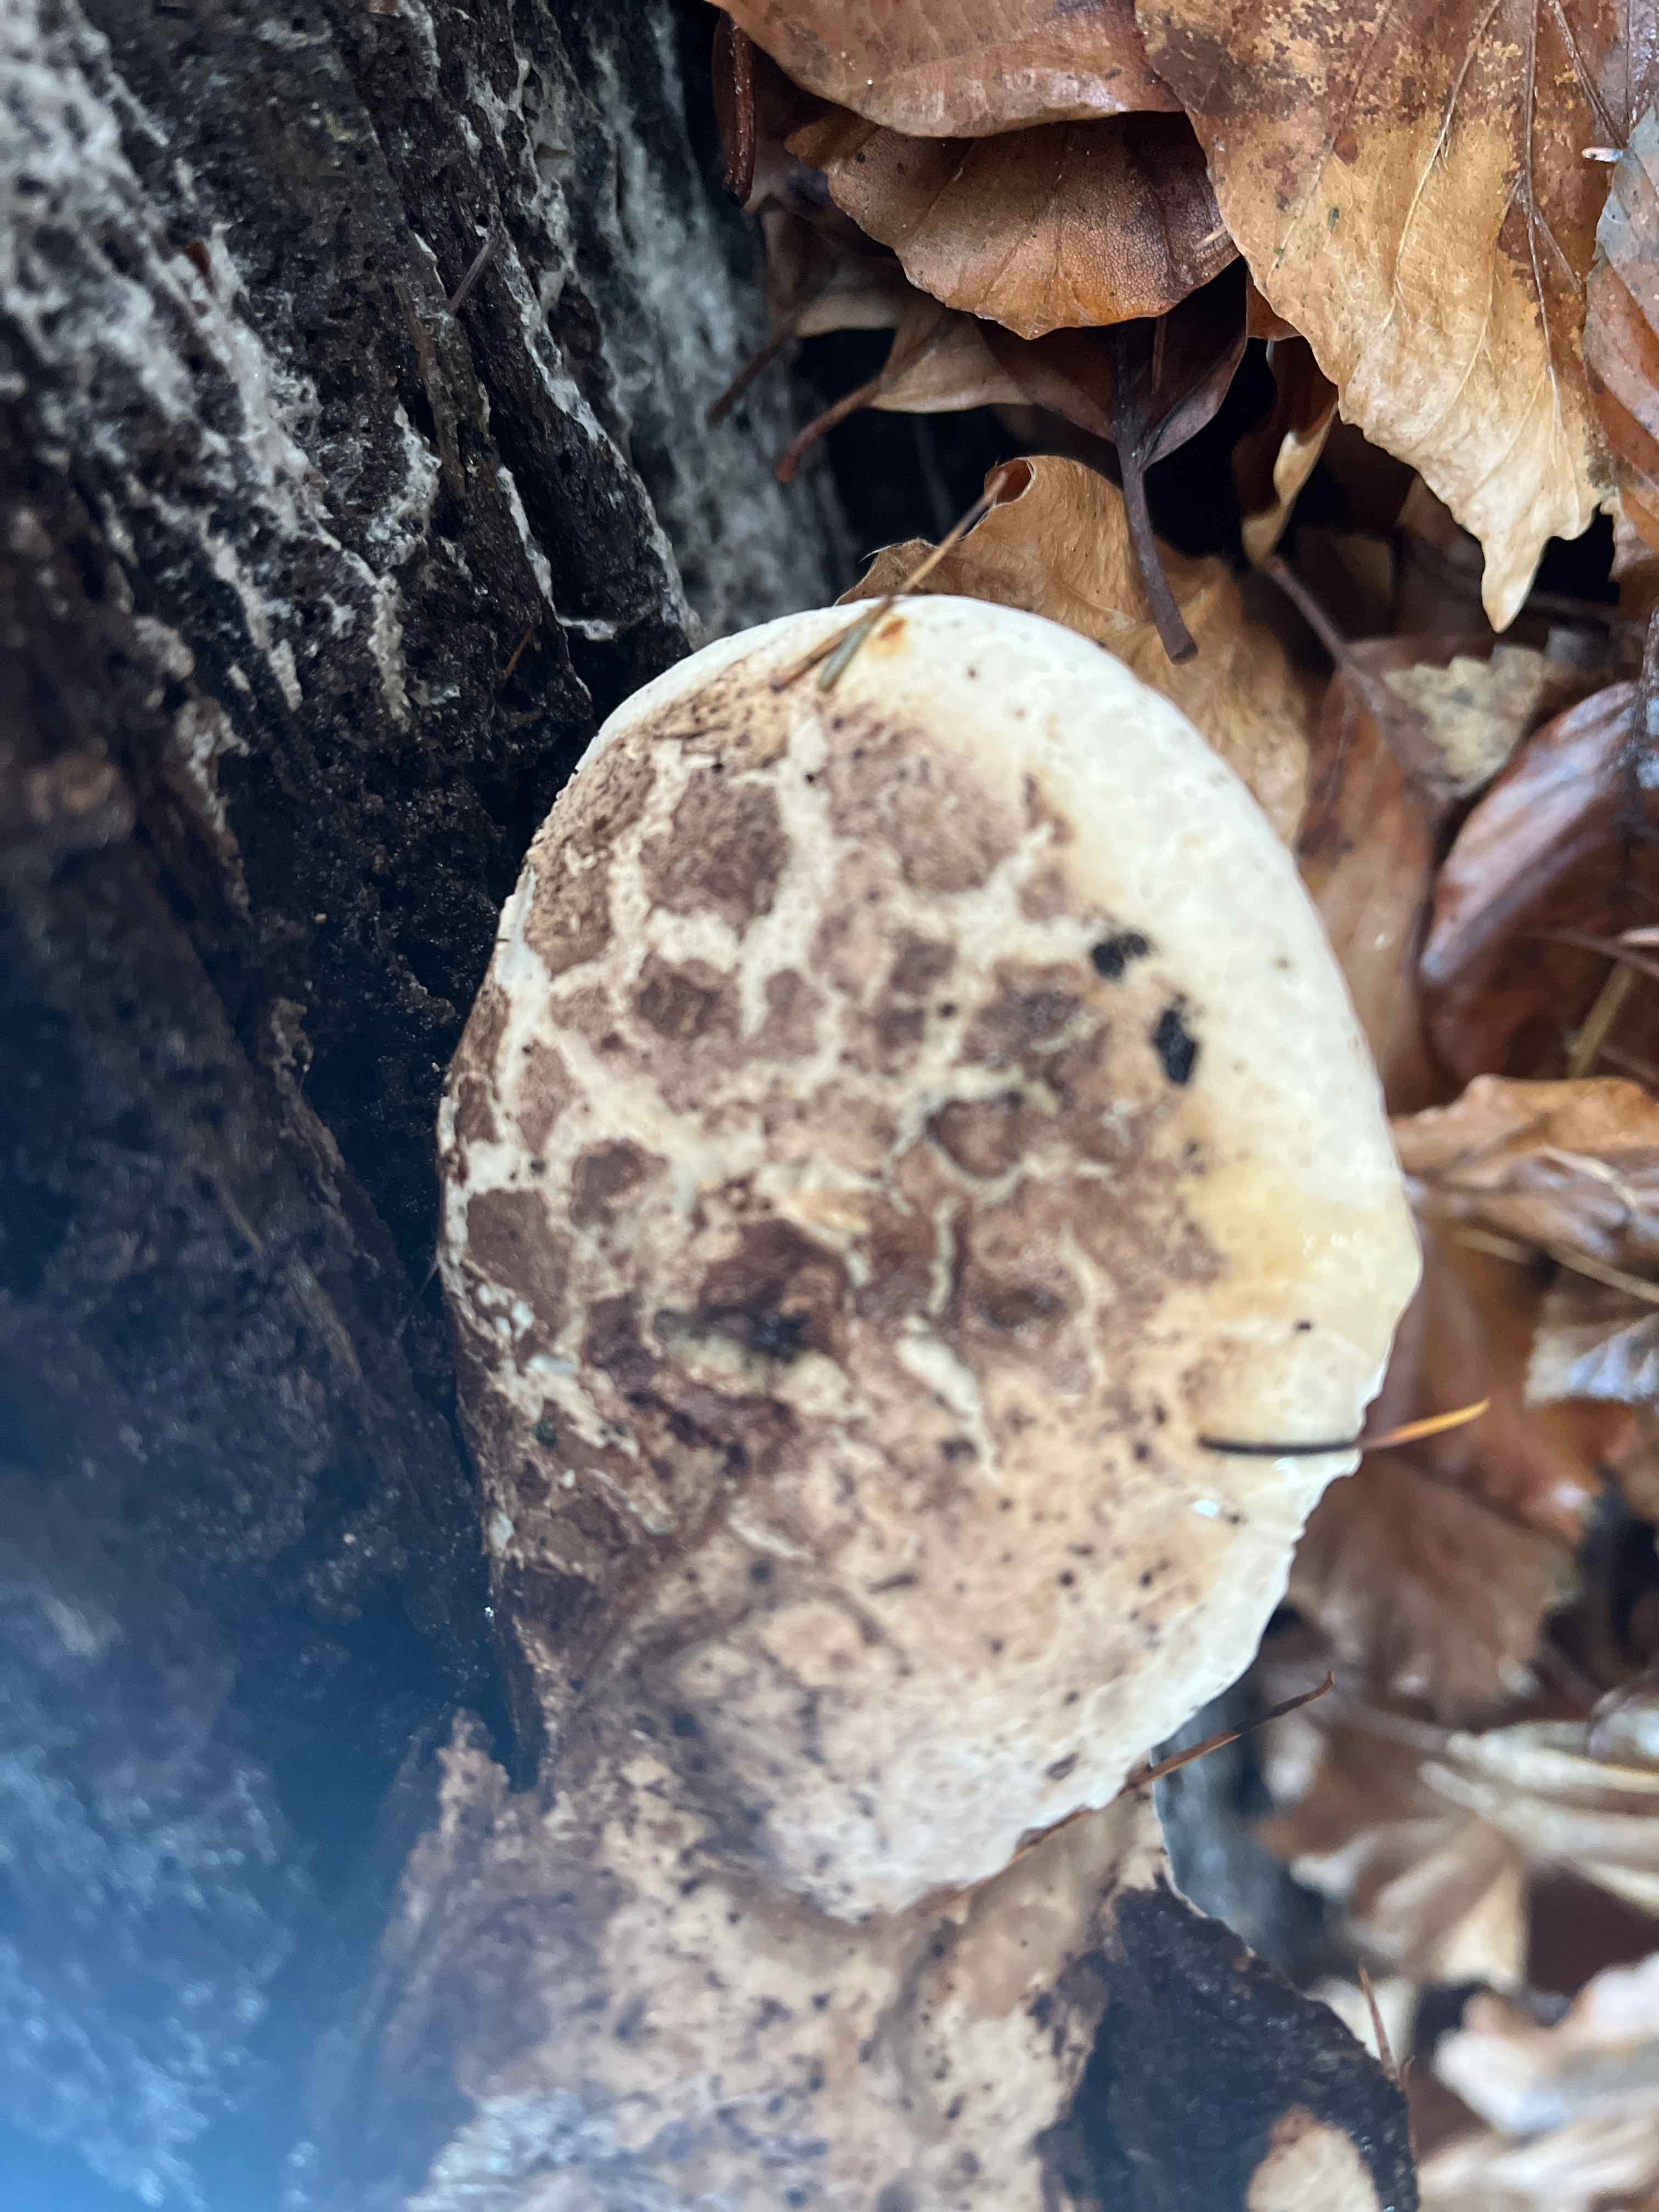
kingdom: Fungi
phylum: Basidiomycota
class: Agaricomycetes
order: Polyporales
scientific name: Polyporales
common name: poresvampordenen
